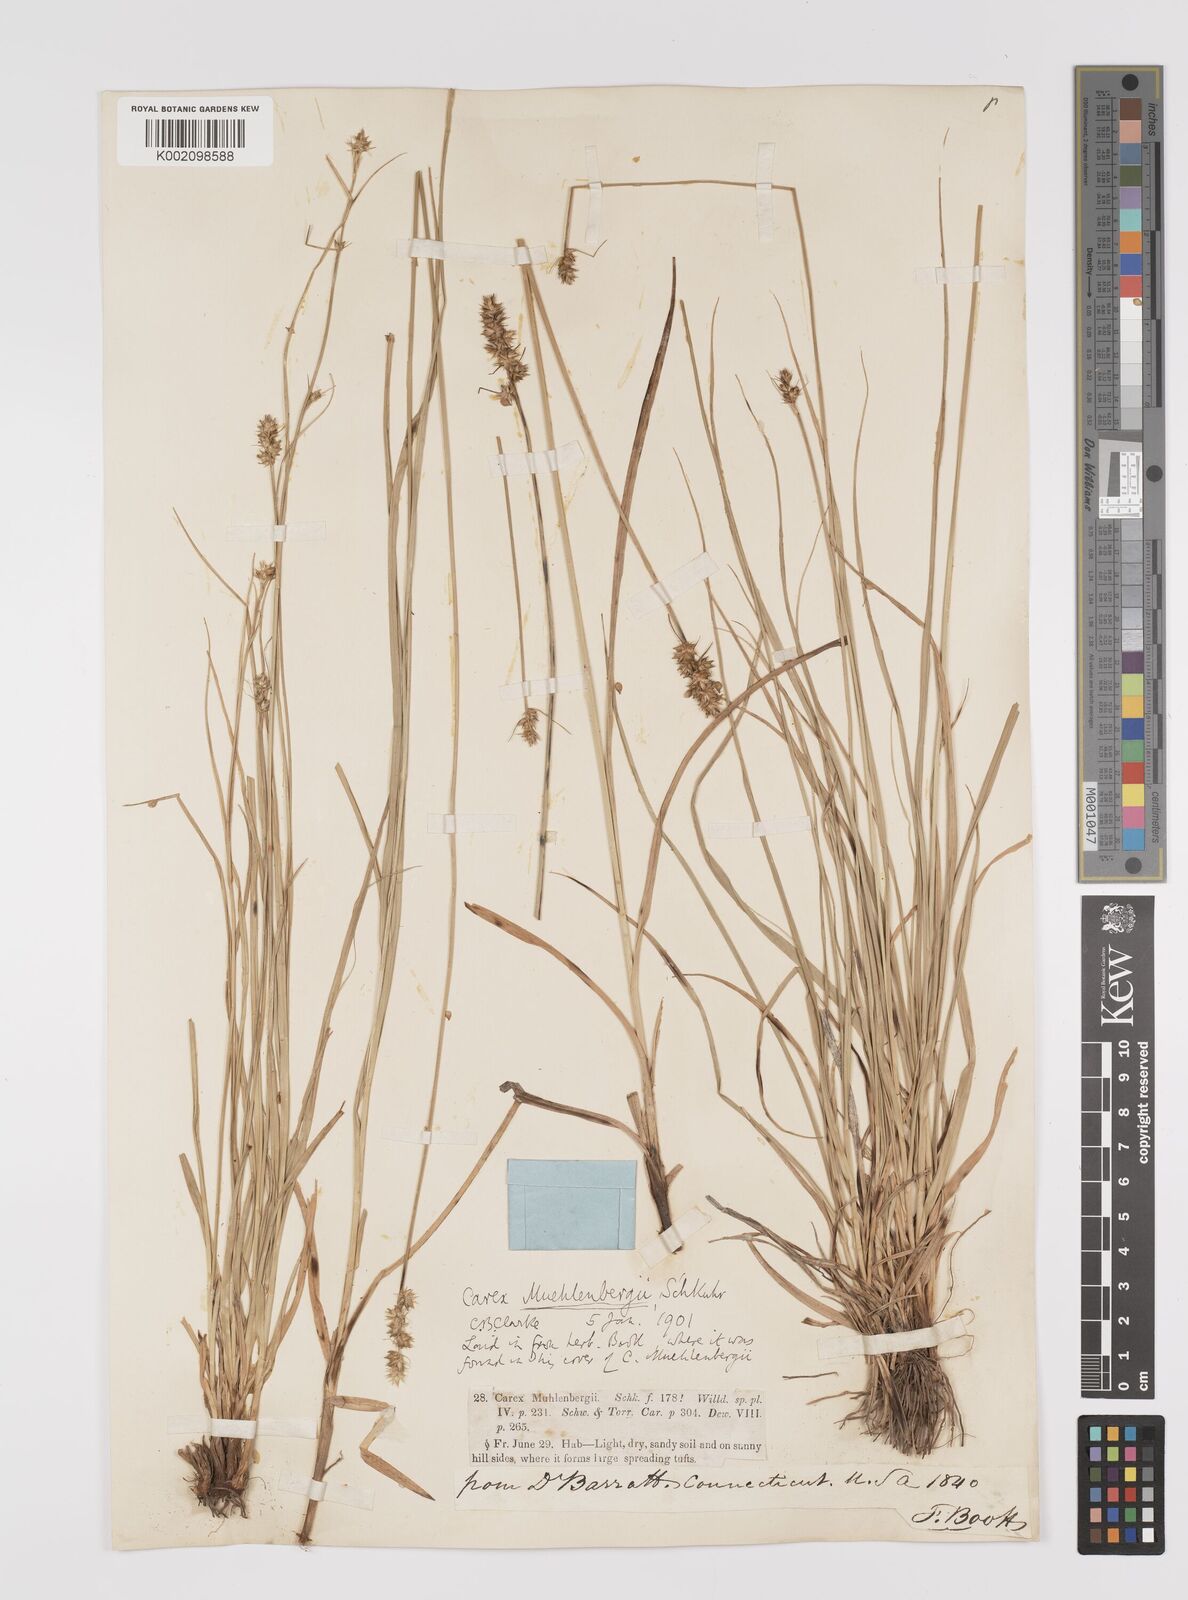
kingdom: Plantae
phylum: Tracheophyta
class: Liliopsida
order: Poales
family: Cyperaceae
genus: Carex
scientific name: Carex vulpinoidea
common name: American fox-sedge
